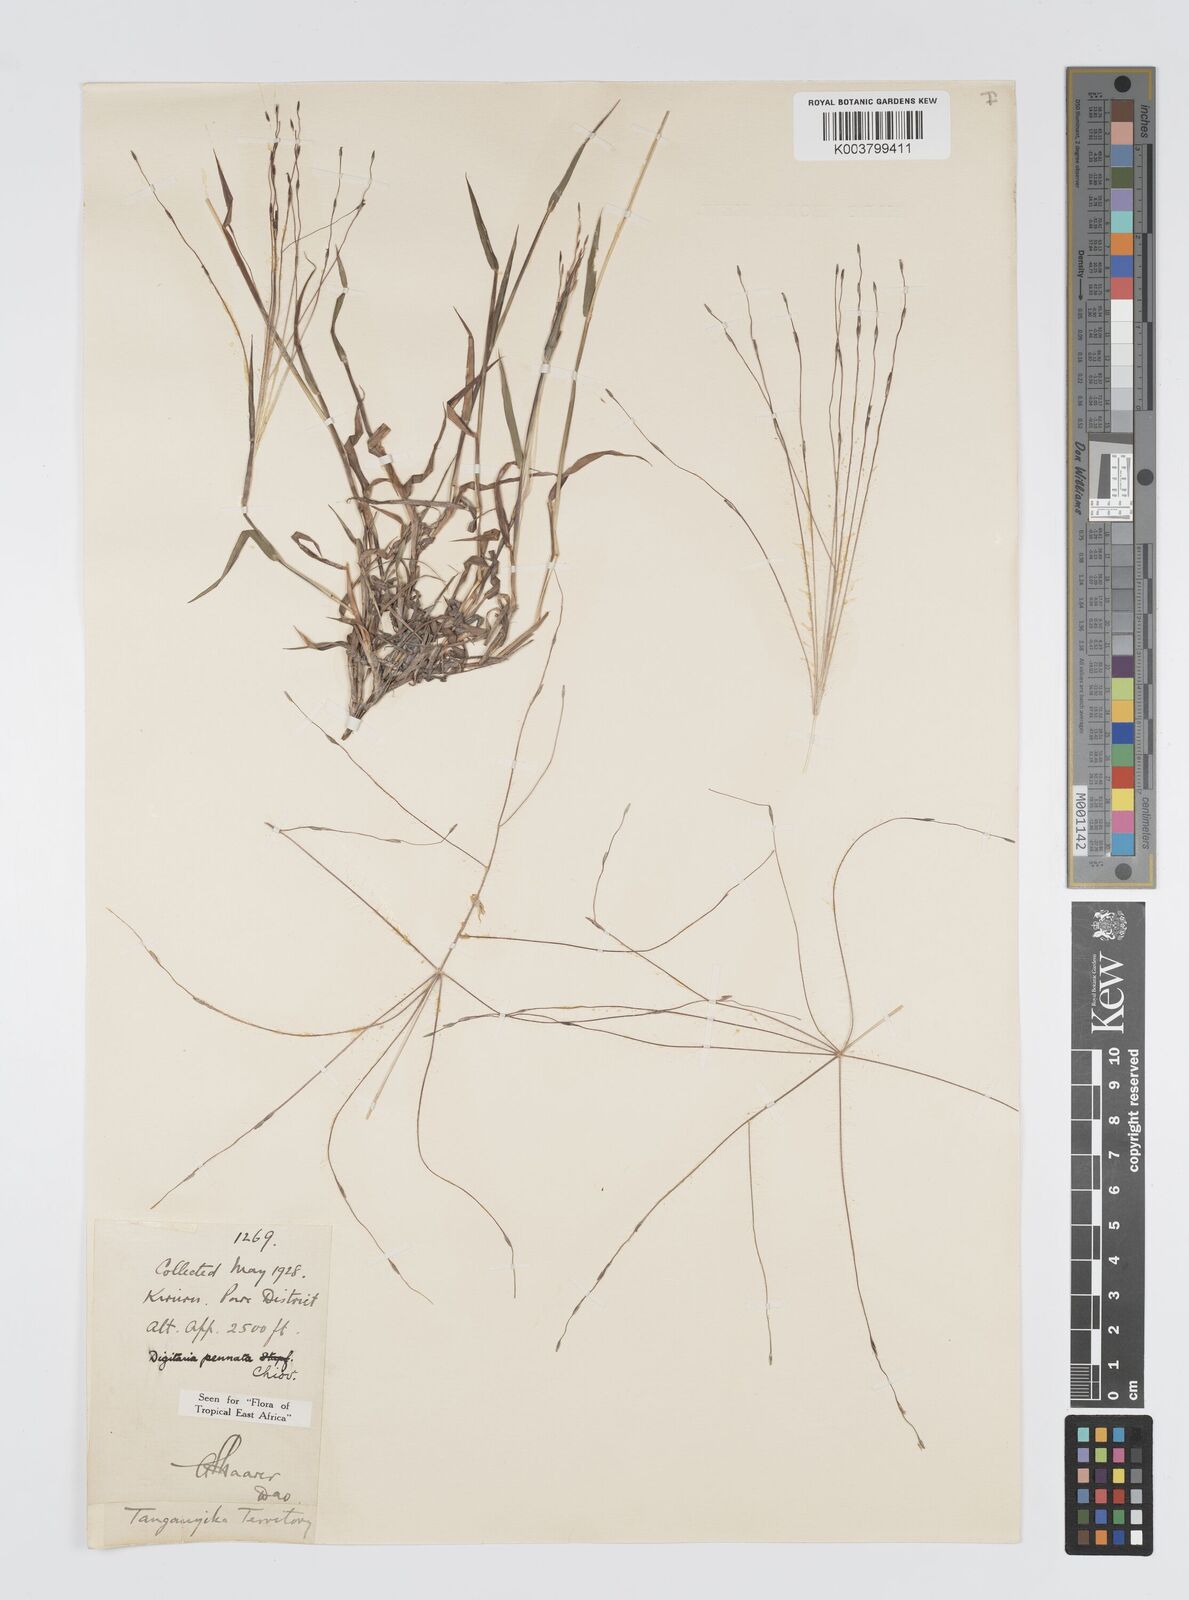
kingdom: Plantae
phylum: Tracheophyta
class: Liliopsida
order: Poales
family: Poaceae
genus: Digitaria
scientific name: Digitaria pennata
